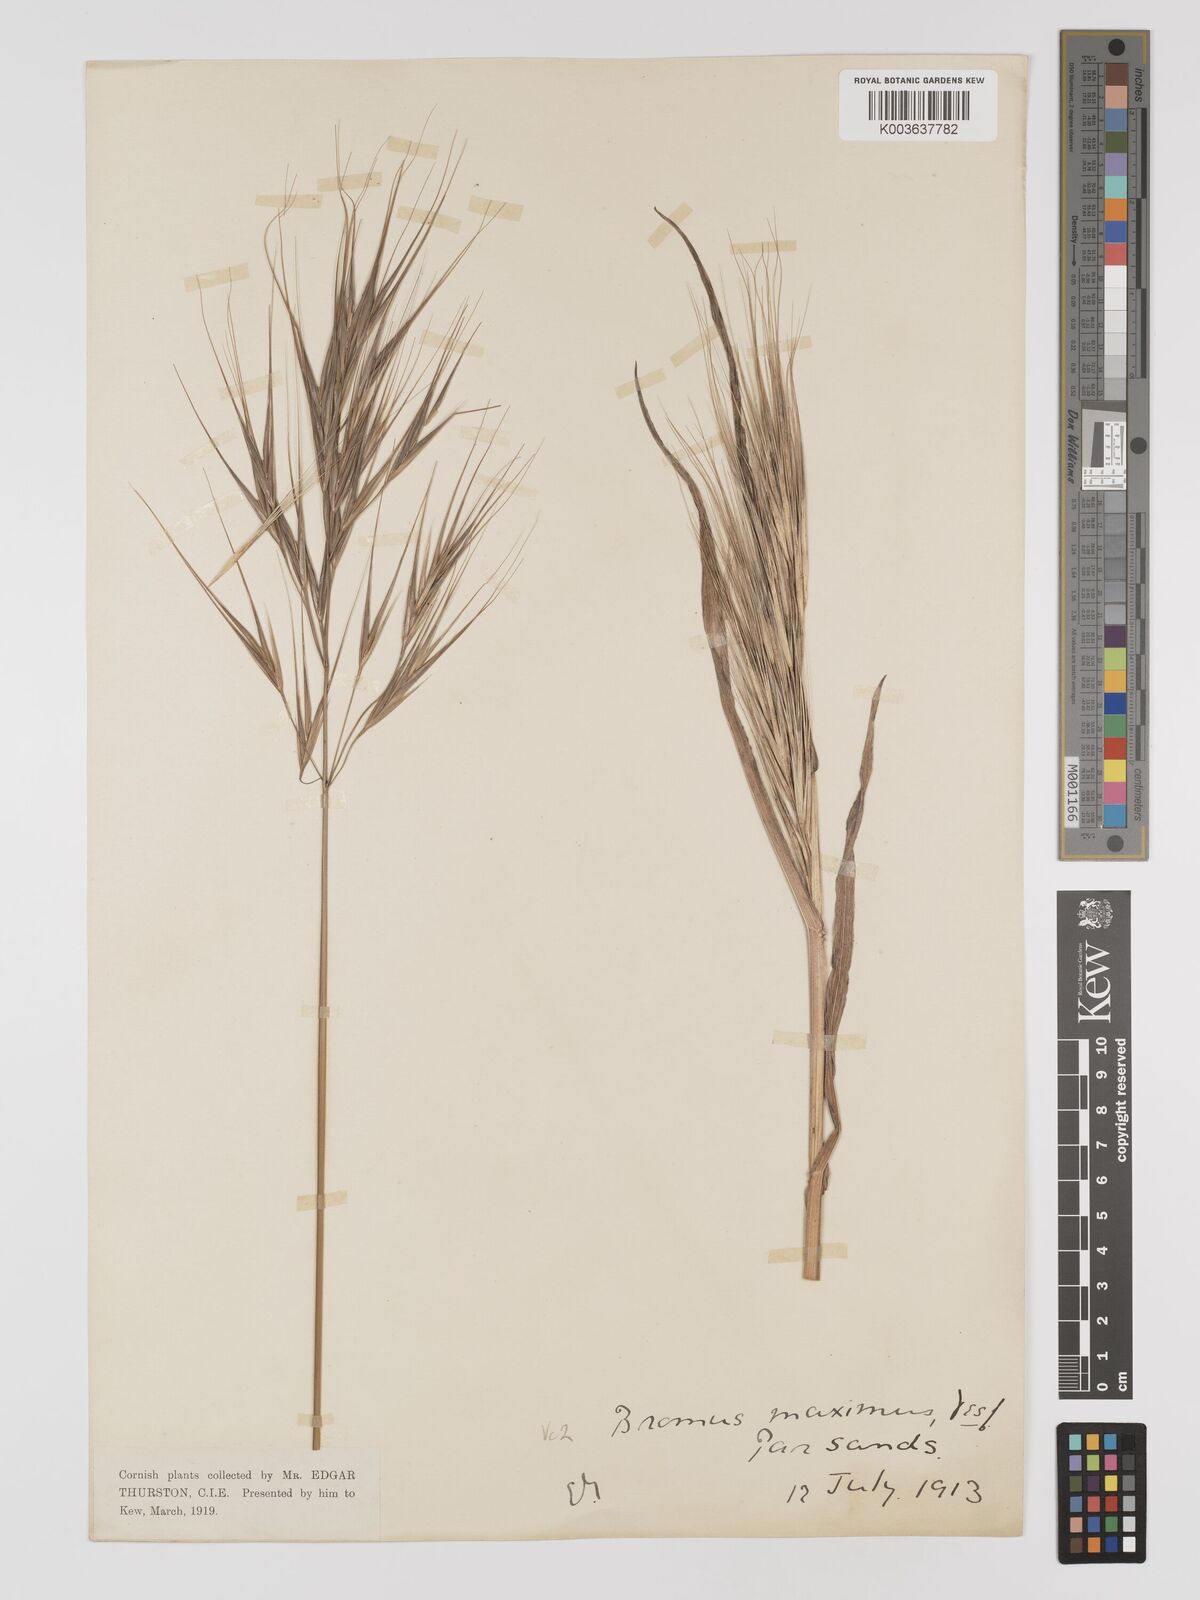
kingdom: Plantae
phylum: Tracheophyta
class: Liliopsida
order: Poales
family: Poaceae
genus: Bromus
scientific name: Bromus
